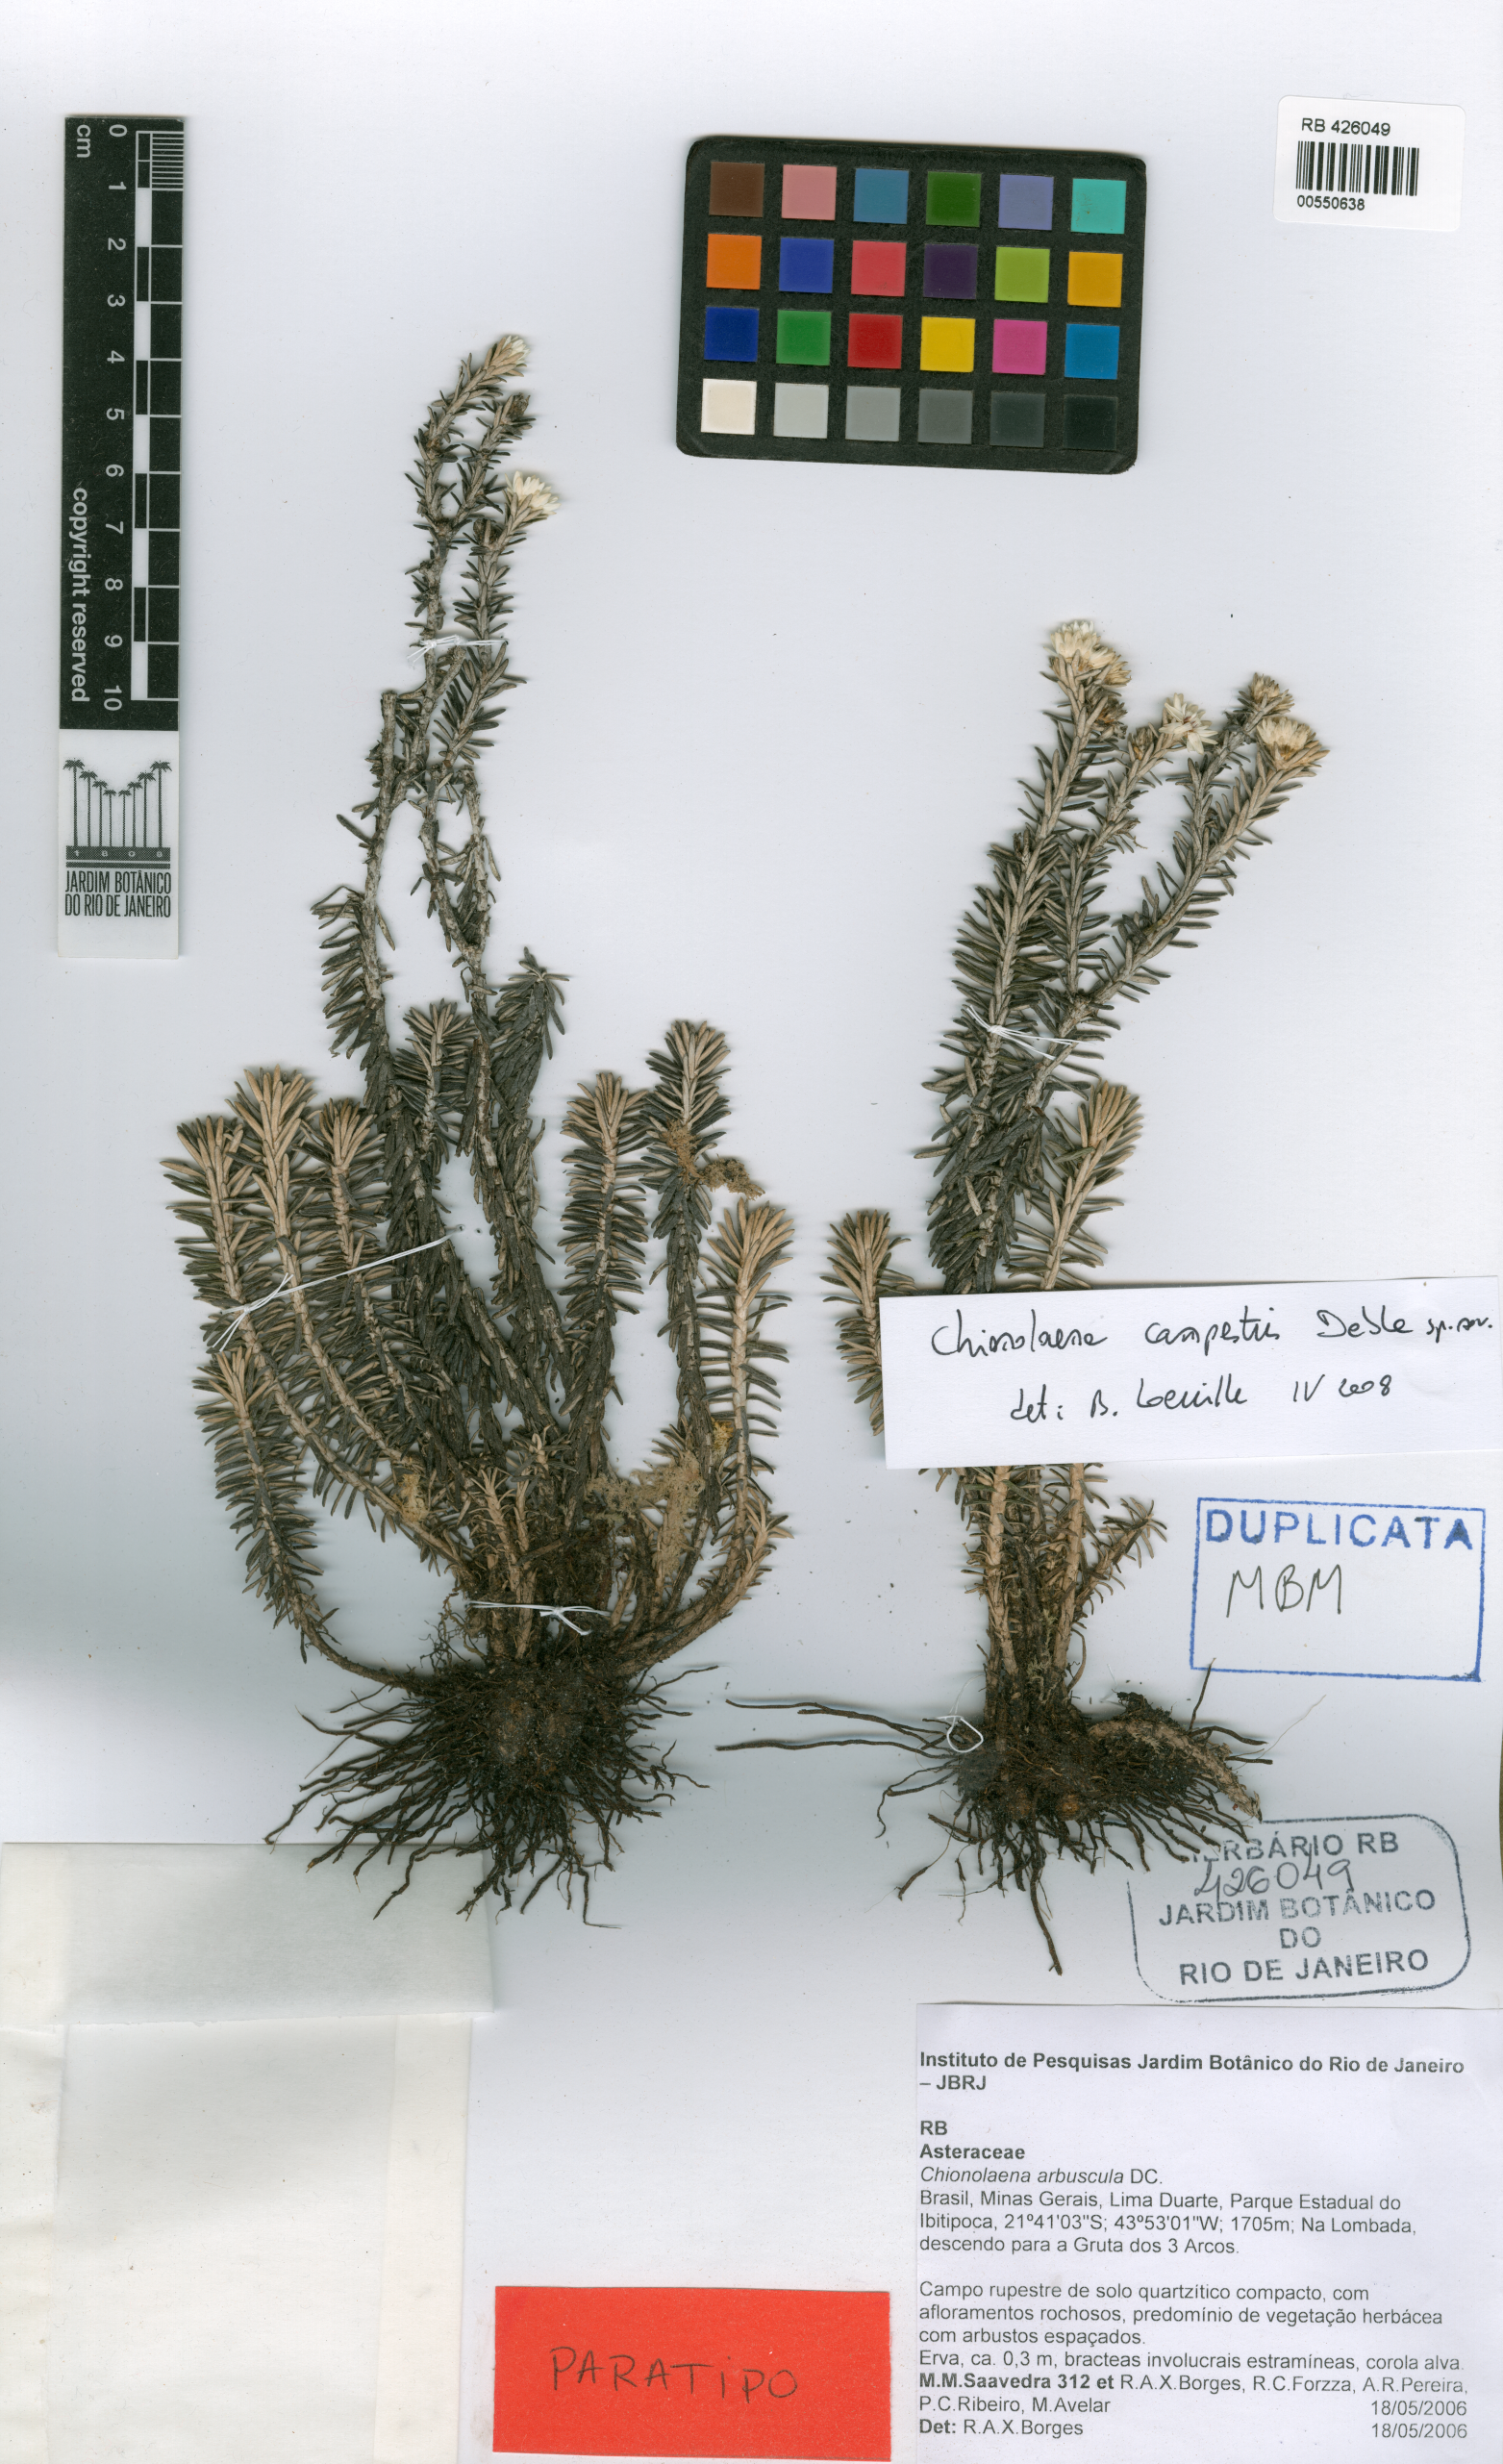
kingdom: Plantae
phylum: Tracheophyta
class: Magnoliopsida
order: Asterales
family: Asteraceae
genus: Chionolaena
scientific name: Chionolaena campestris
